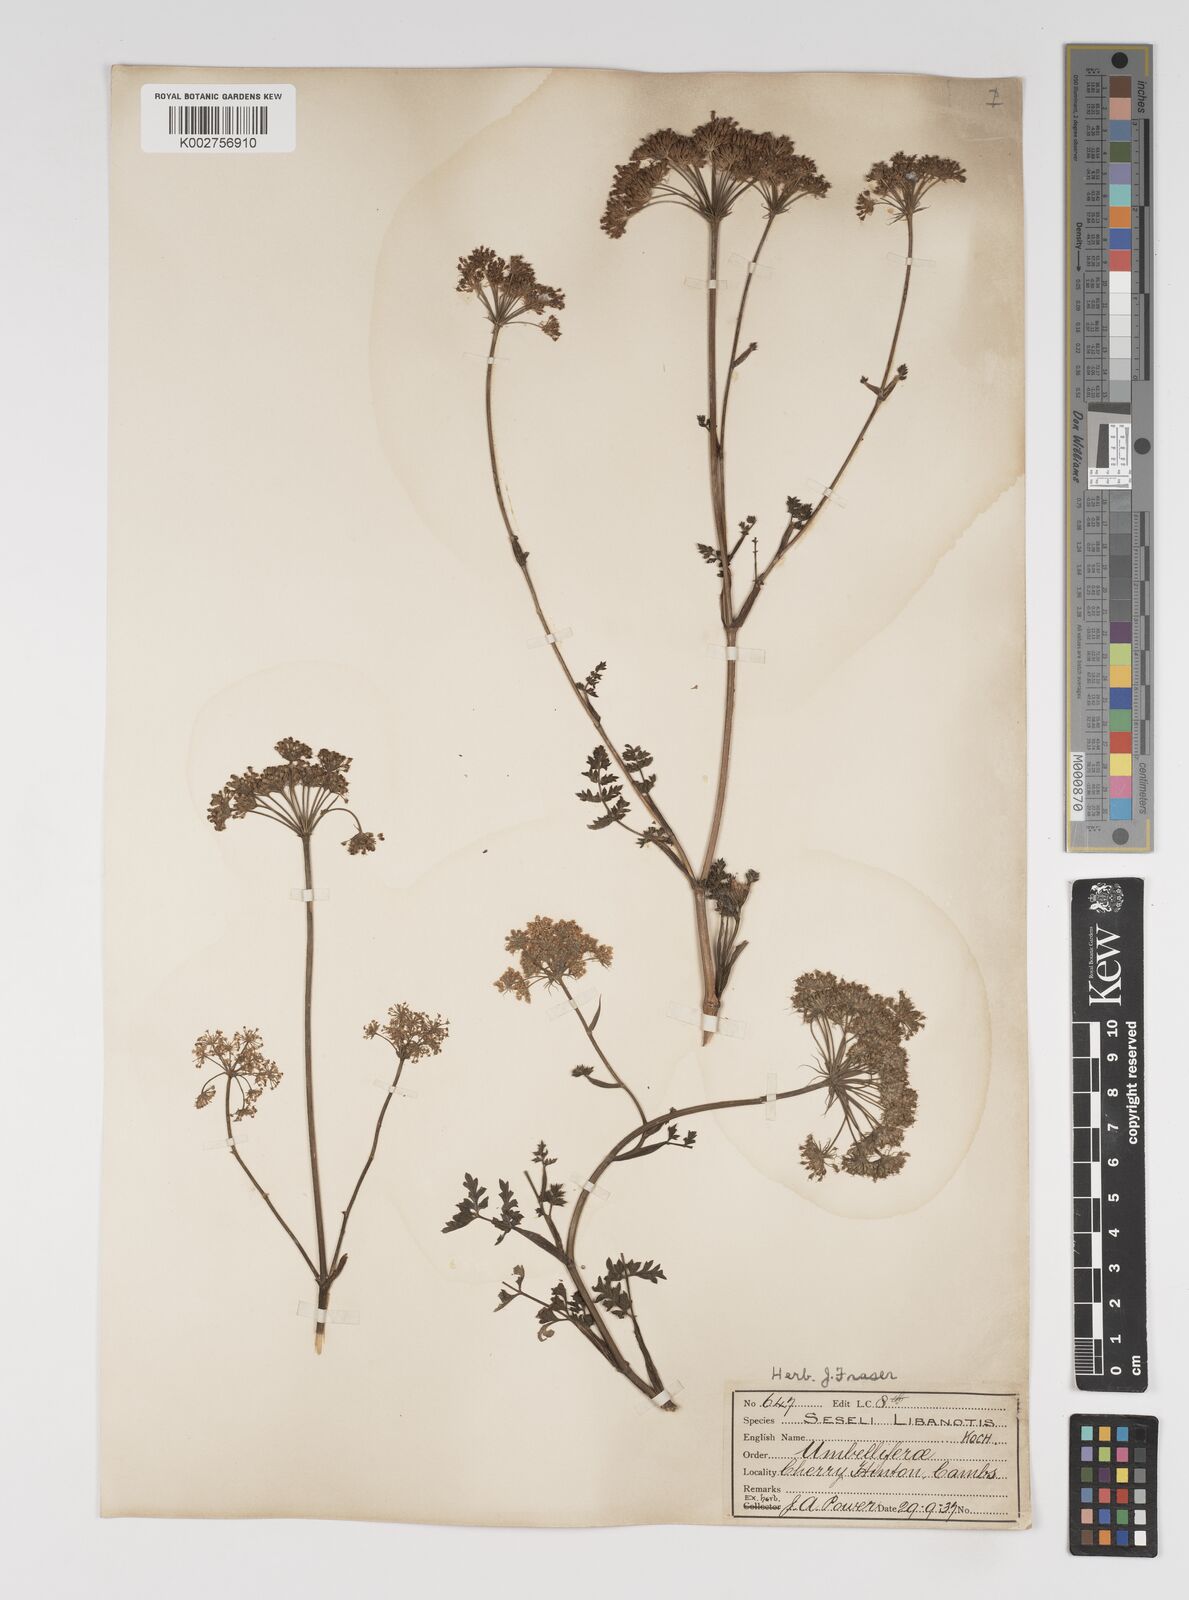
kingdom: Plantae
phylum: Tracheophyta
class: Magnoliopsida
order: Apiales
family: Apiaceae
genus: Seseli
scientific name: Seseli libanotis
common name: Mooncarrot
